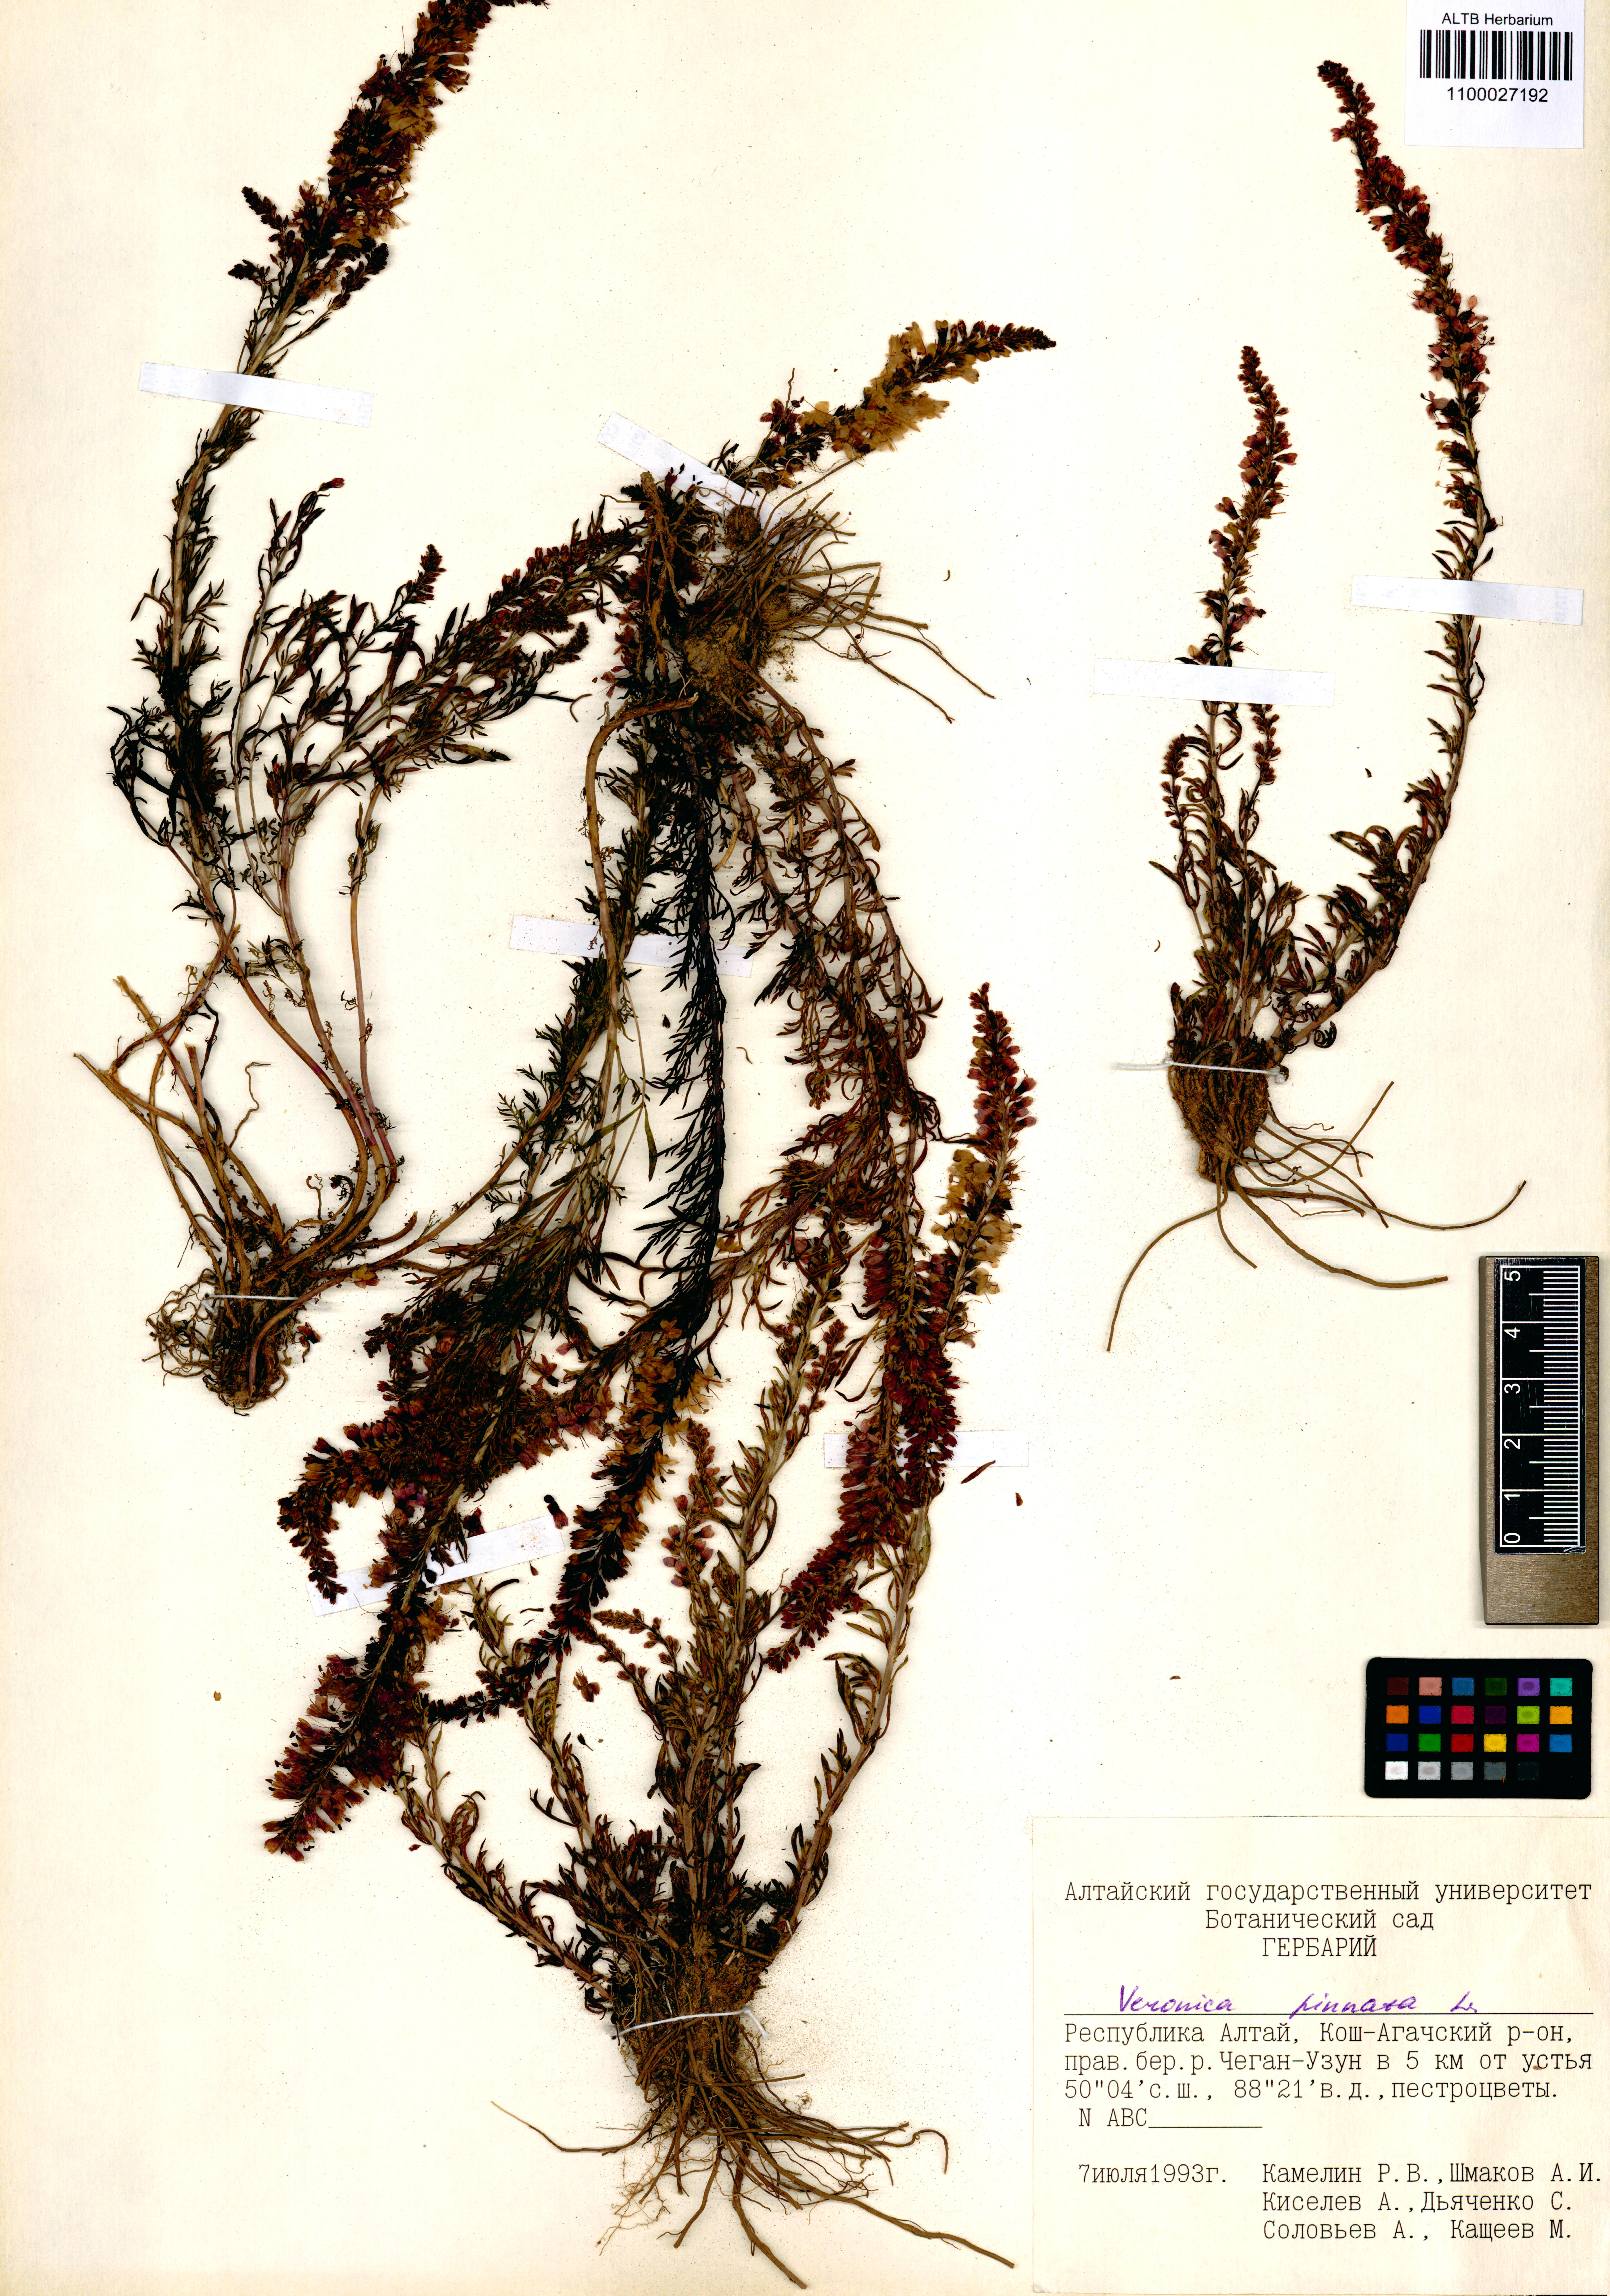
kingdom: Plantae
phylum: Tracheophyta
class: Magnoliopsida
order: Lamiales
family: Plantaginaceae
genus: Veronica
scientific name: Veronica pinnata
